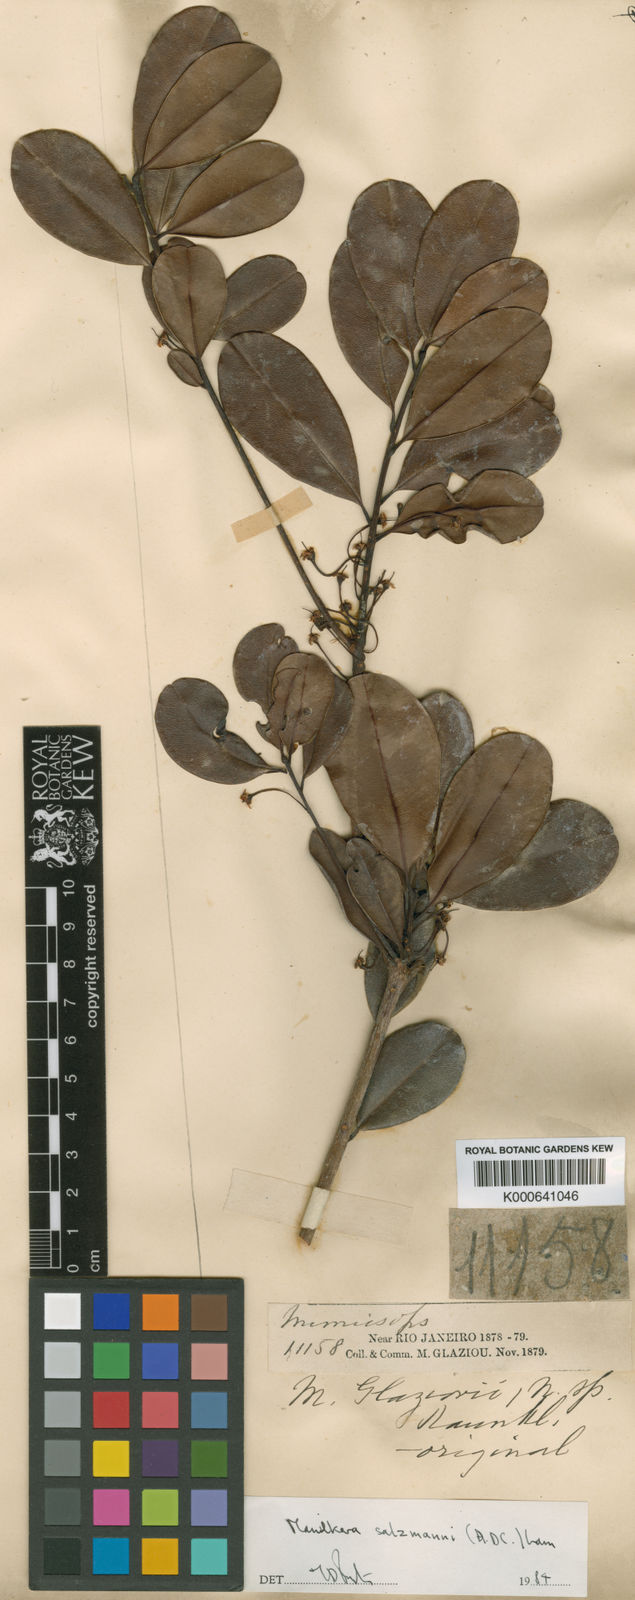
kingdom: Plantae
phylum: Tracheophyta
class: Magnoliopsida
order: Ericales
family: Sapotaceae
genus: Manilkara
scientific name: Manilkara
